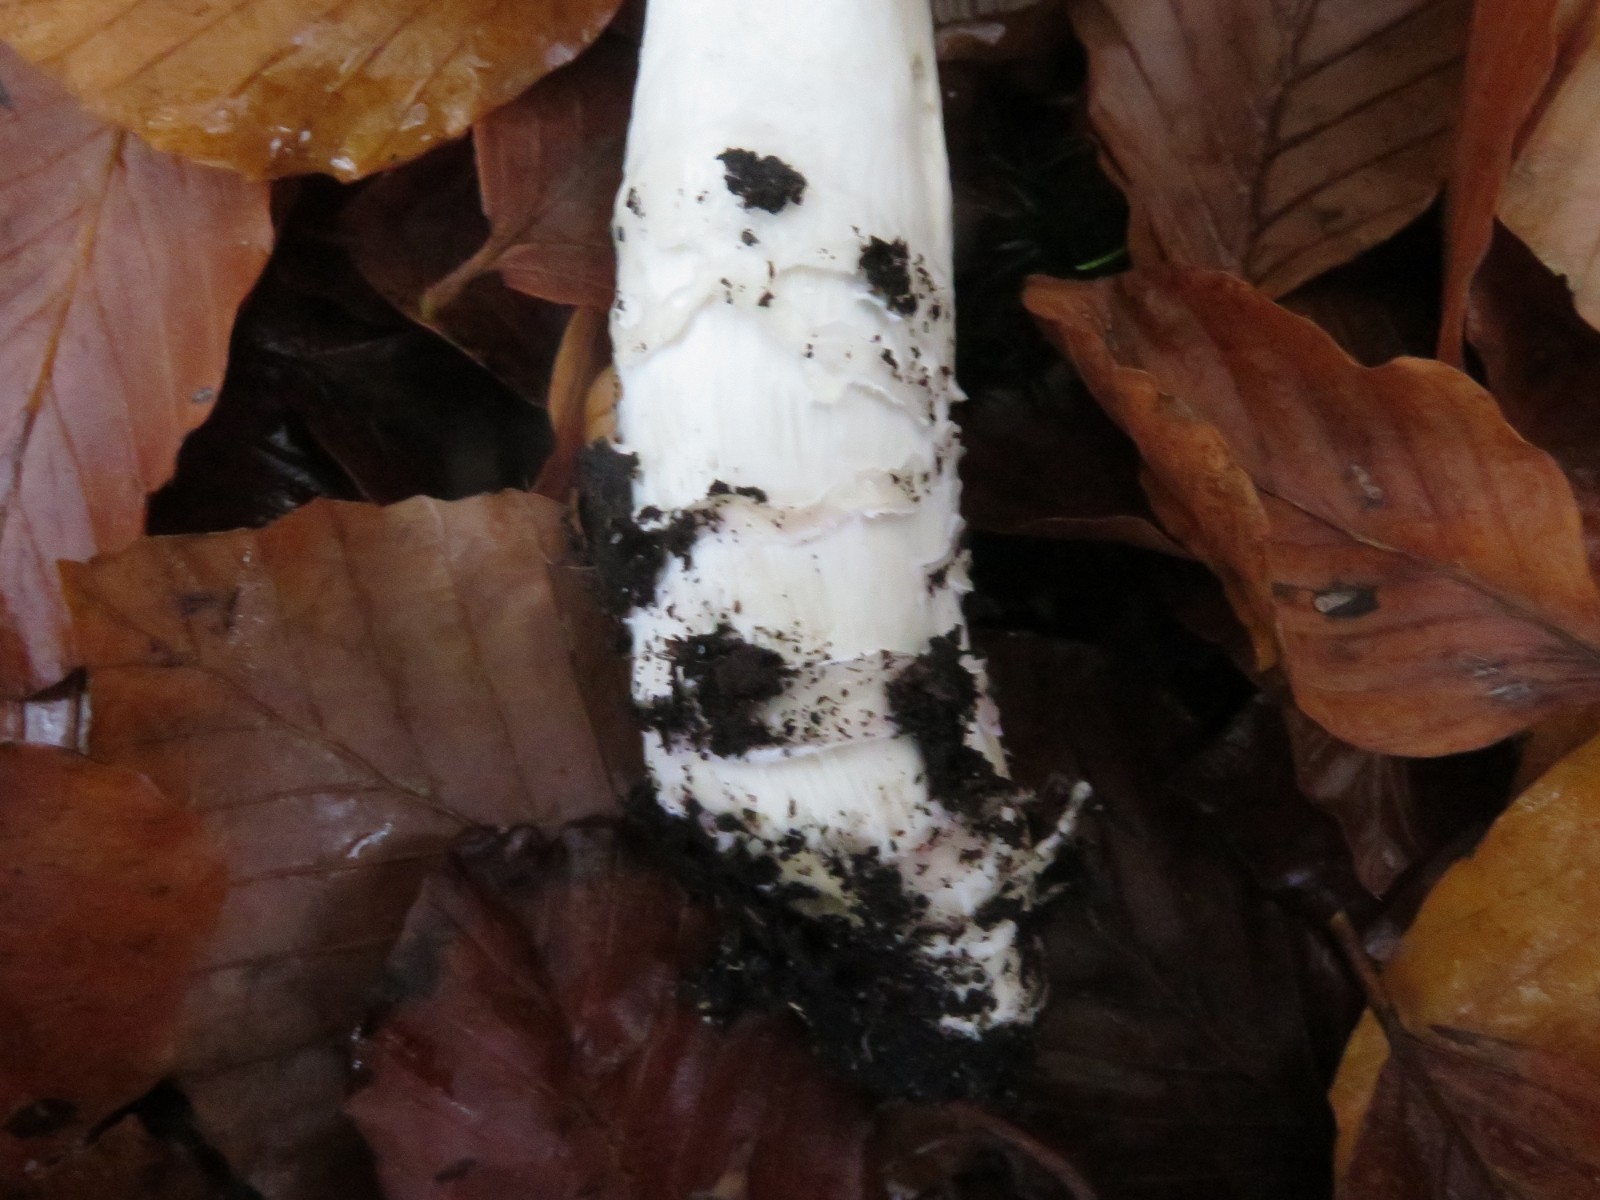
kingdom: Fungi
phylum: Basidiomycota
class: Agaricomycetes
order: Agaricales
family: Cortinariaceae
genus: Cortinarius
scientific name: Cortinarius elatior
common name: høj slørhat
